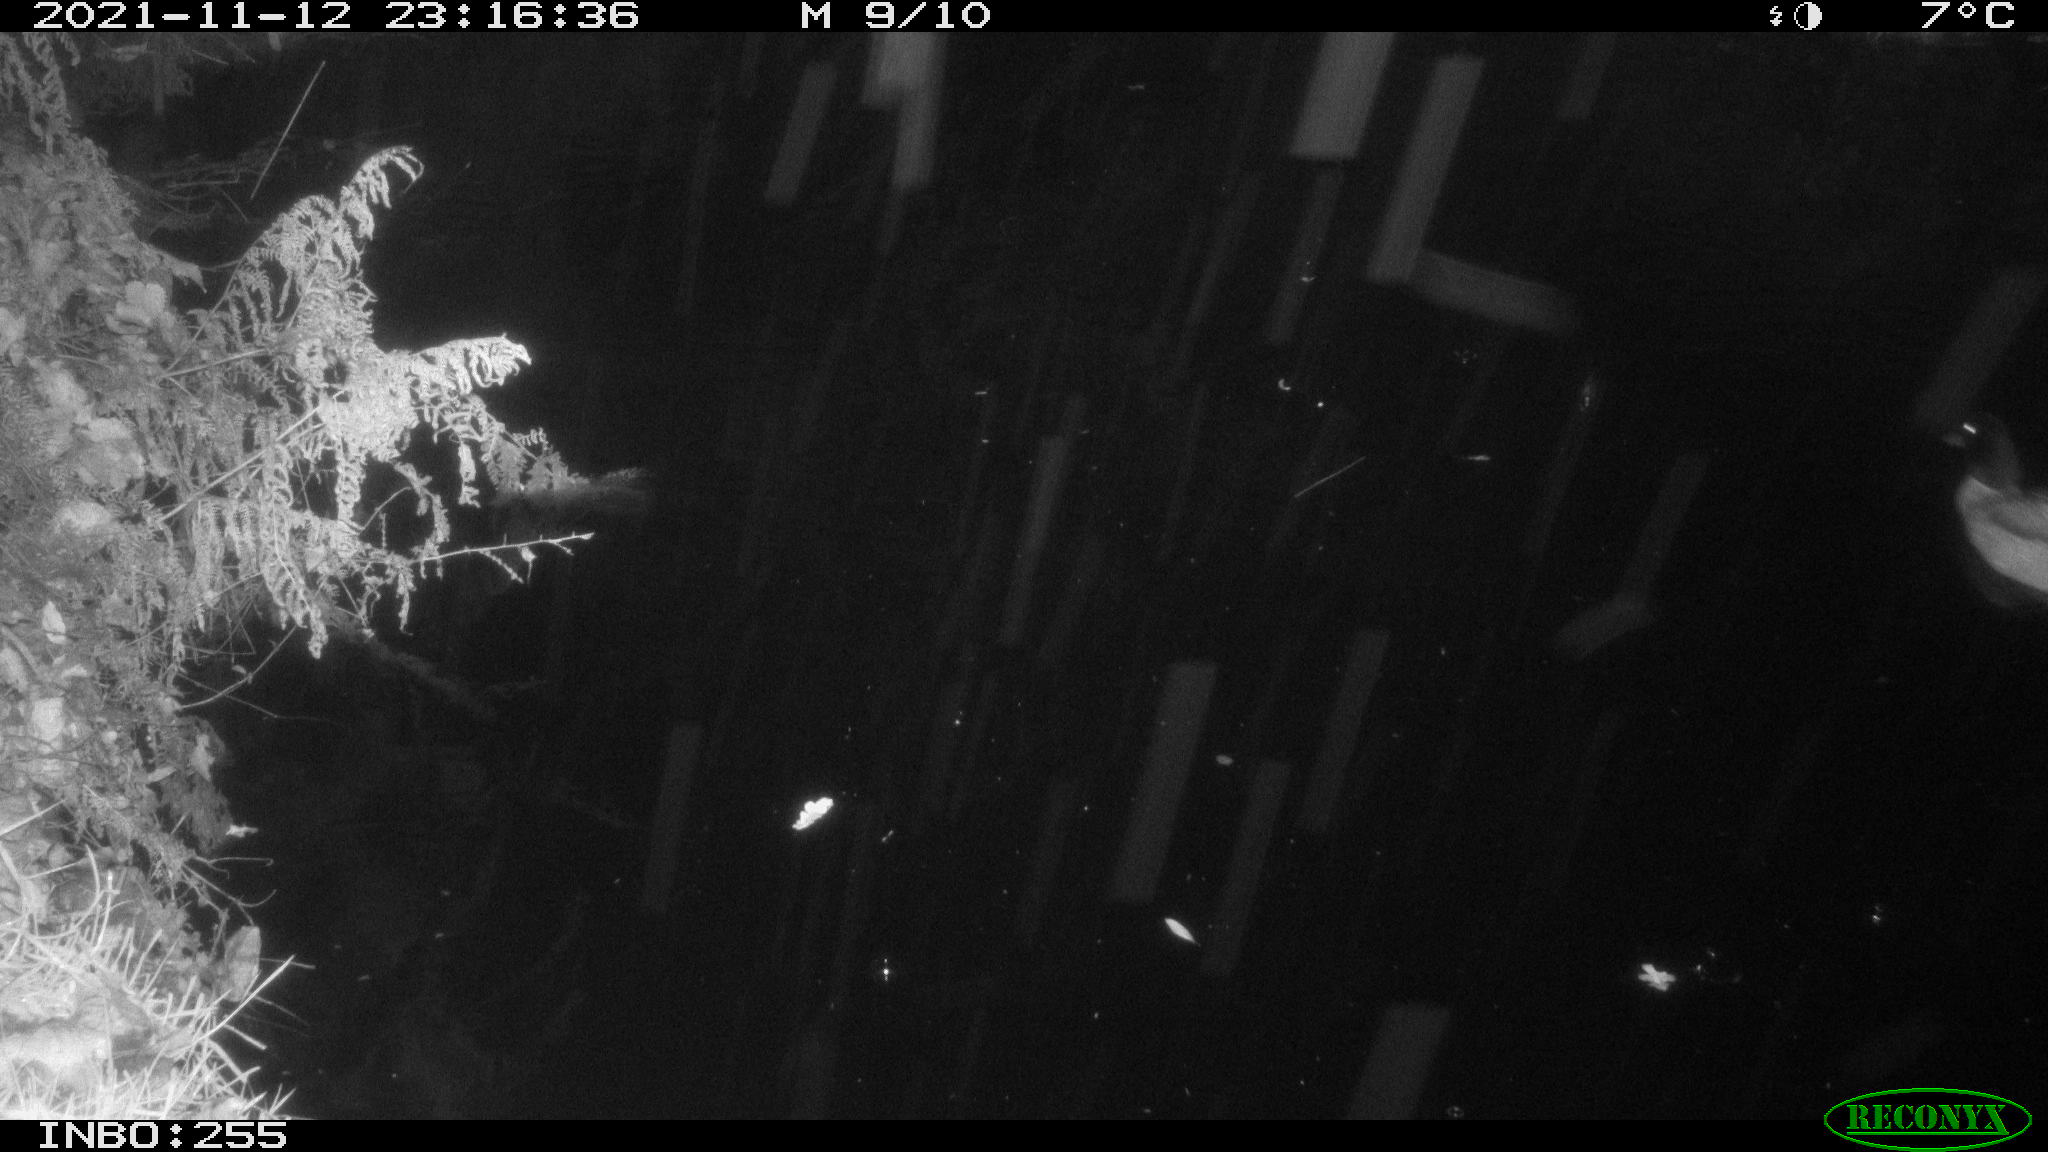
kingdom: Animalia
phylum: Chordata
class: Aves
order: Anseriformes
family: Anatidae
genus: Anas
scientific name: Anas platyrhynchos
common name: Mallard
